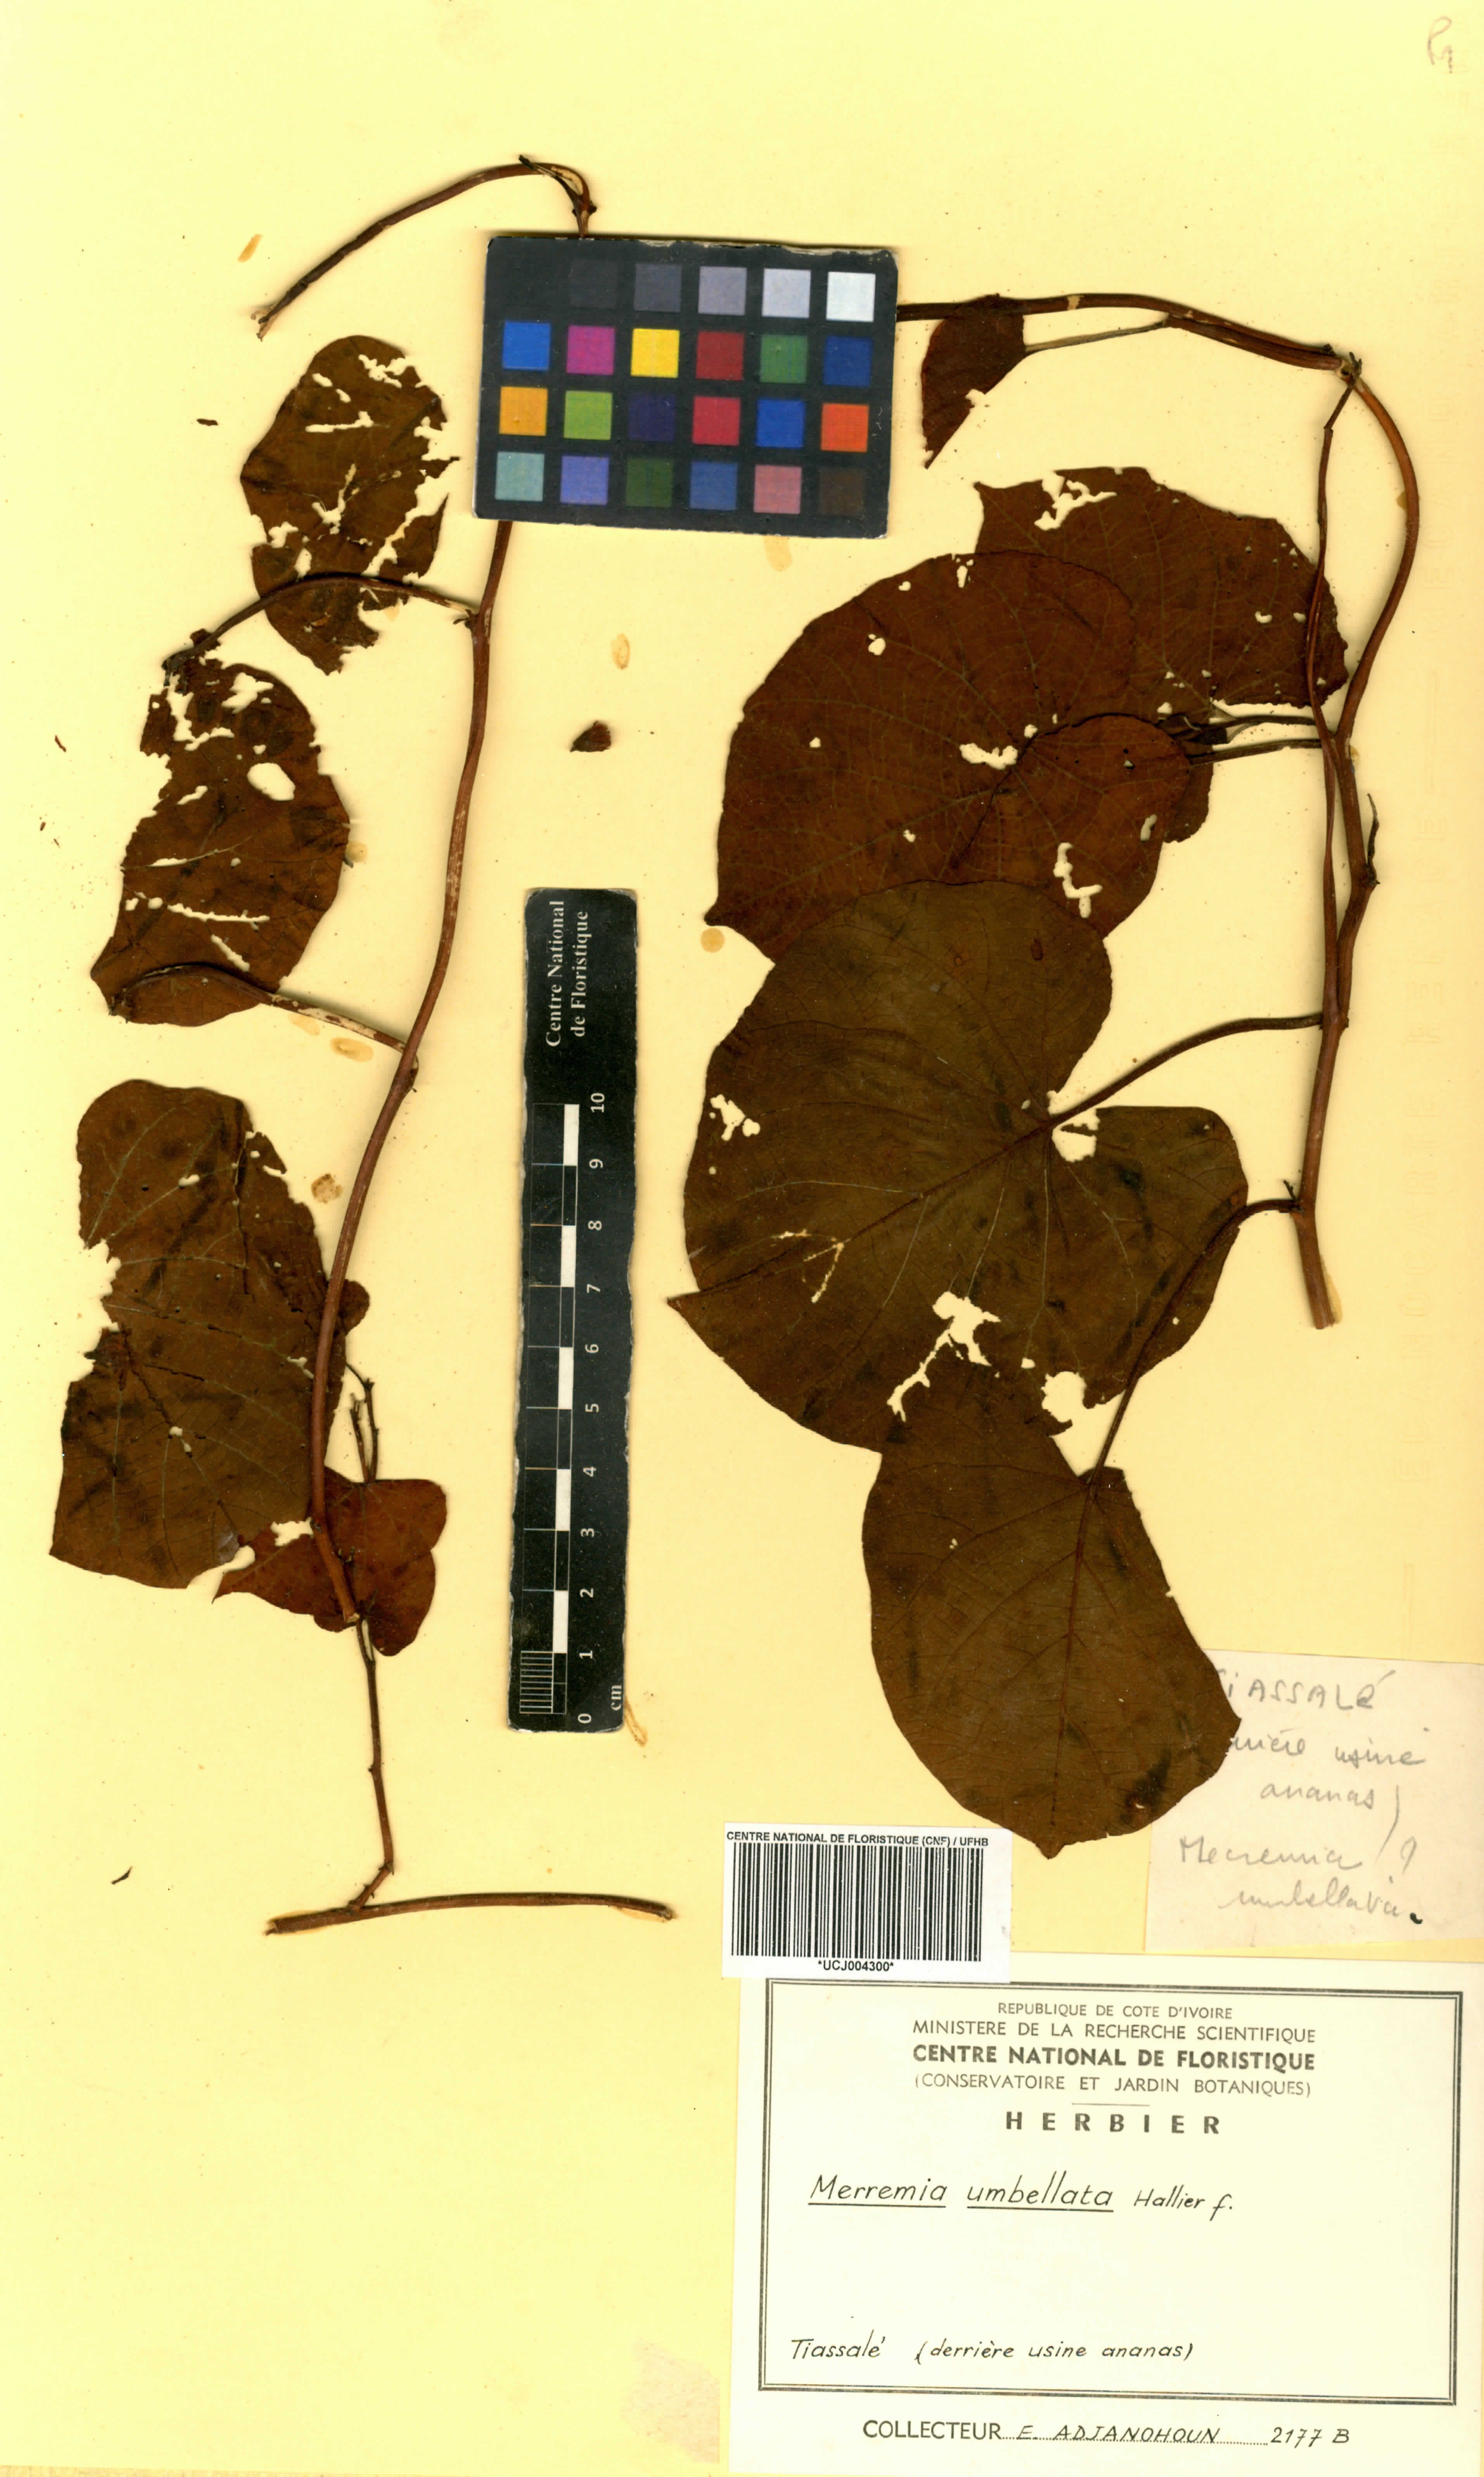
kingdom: Plantae
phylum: Tracheophyta
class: Magnoliopsida
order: Solanales
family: Convolvulaceae
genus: Camonea
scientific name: Camonea umbellata
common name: Hogvine
